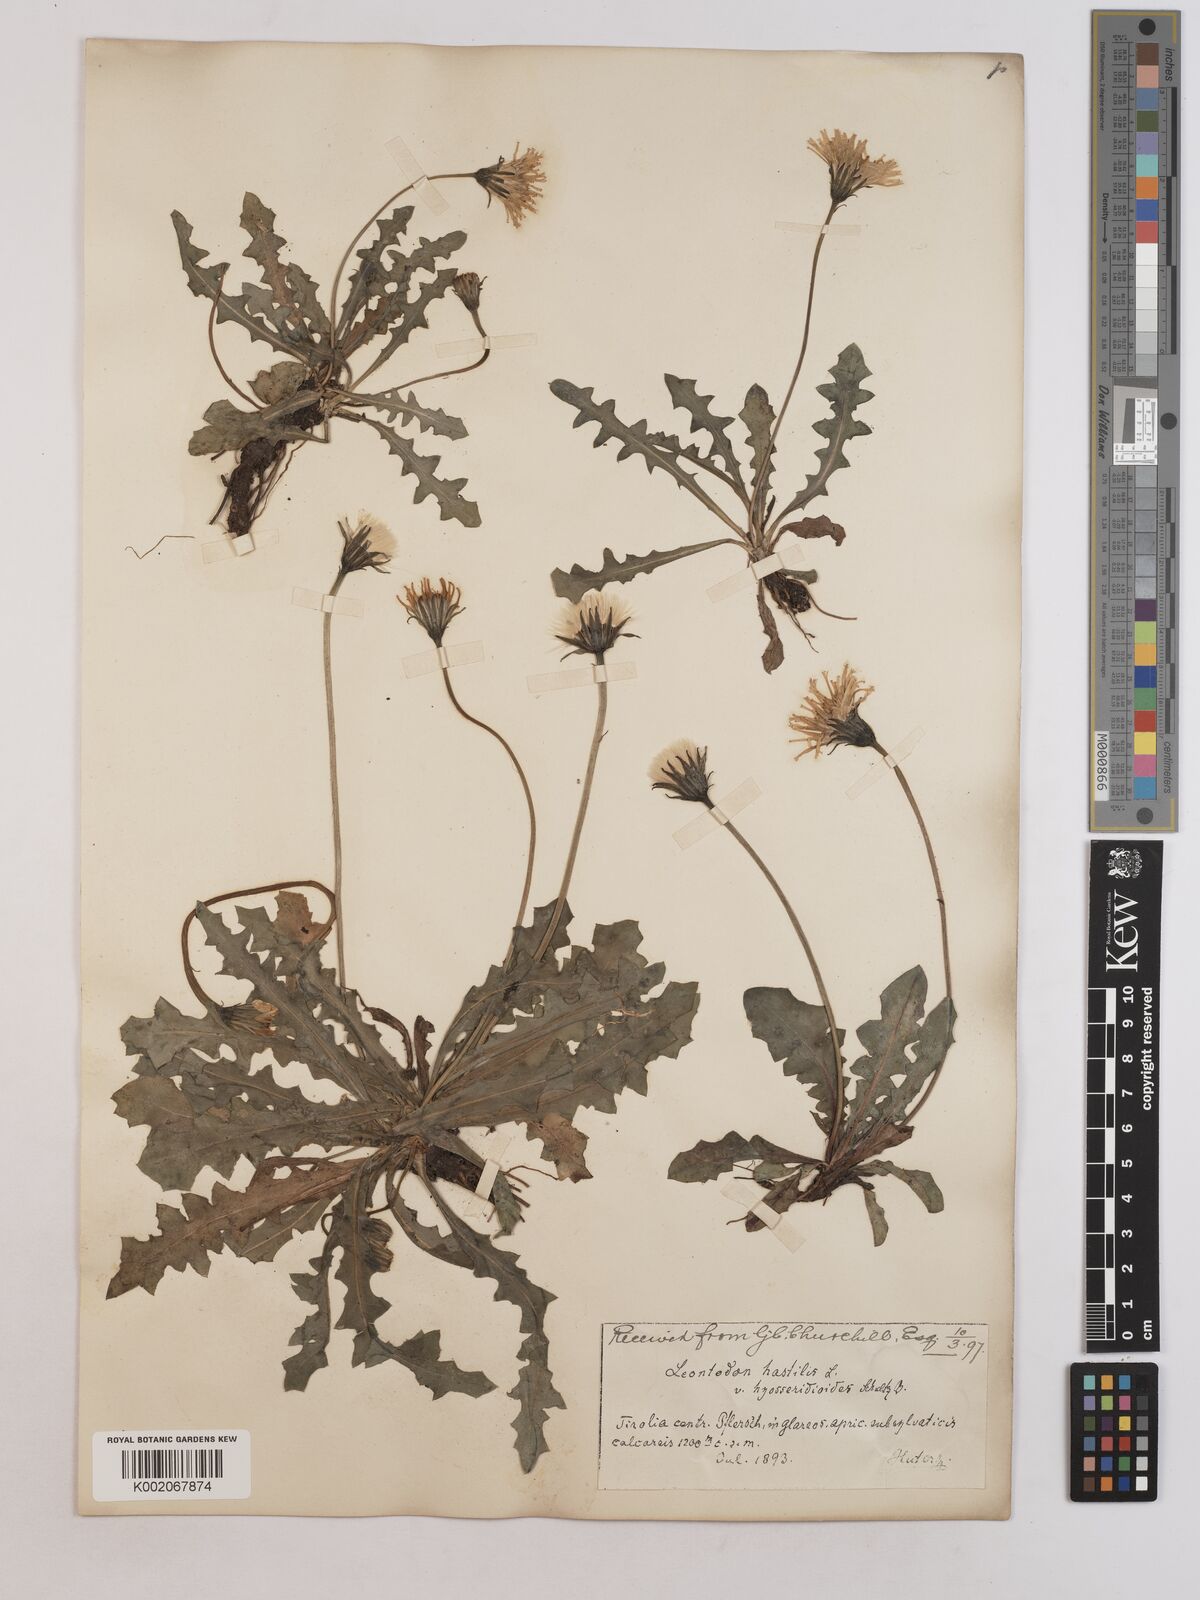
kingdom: Plantae
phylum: Tracheophyta
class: Magnoliopsida
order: Asterales
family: Asteraceae
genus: Leontodon
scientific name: Leontodon hispidus
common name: Rough hawkbit
